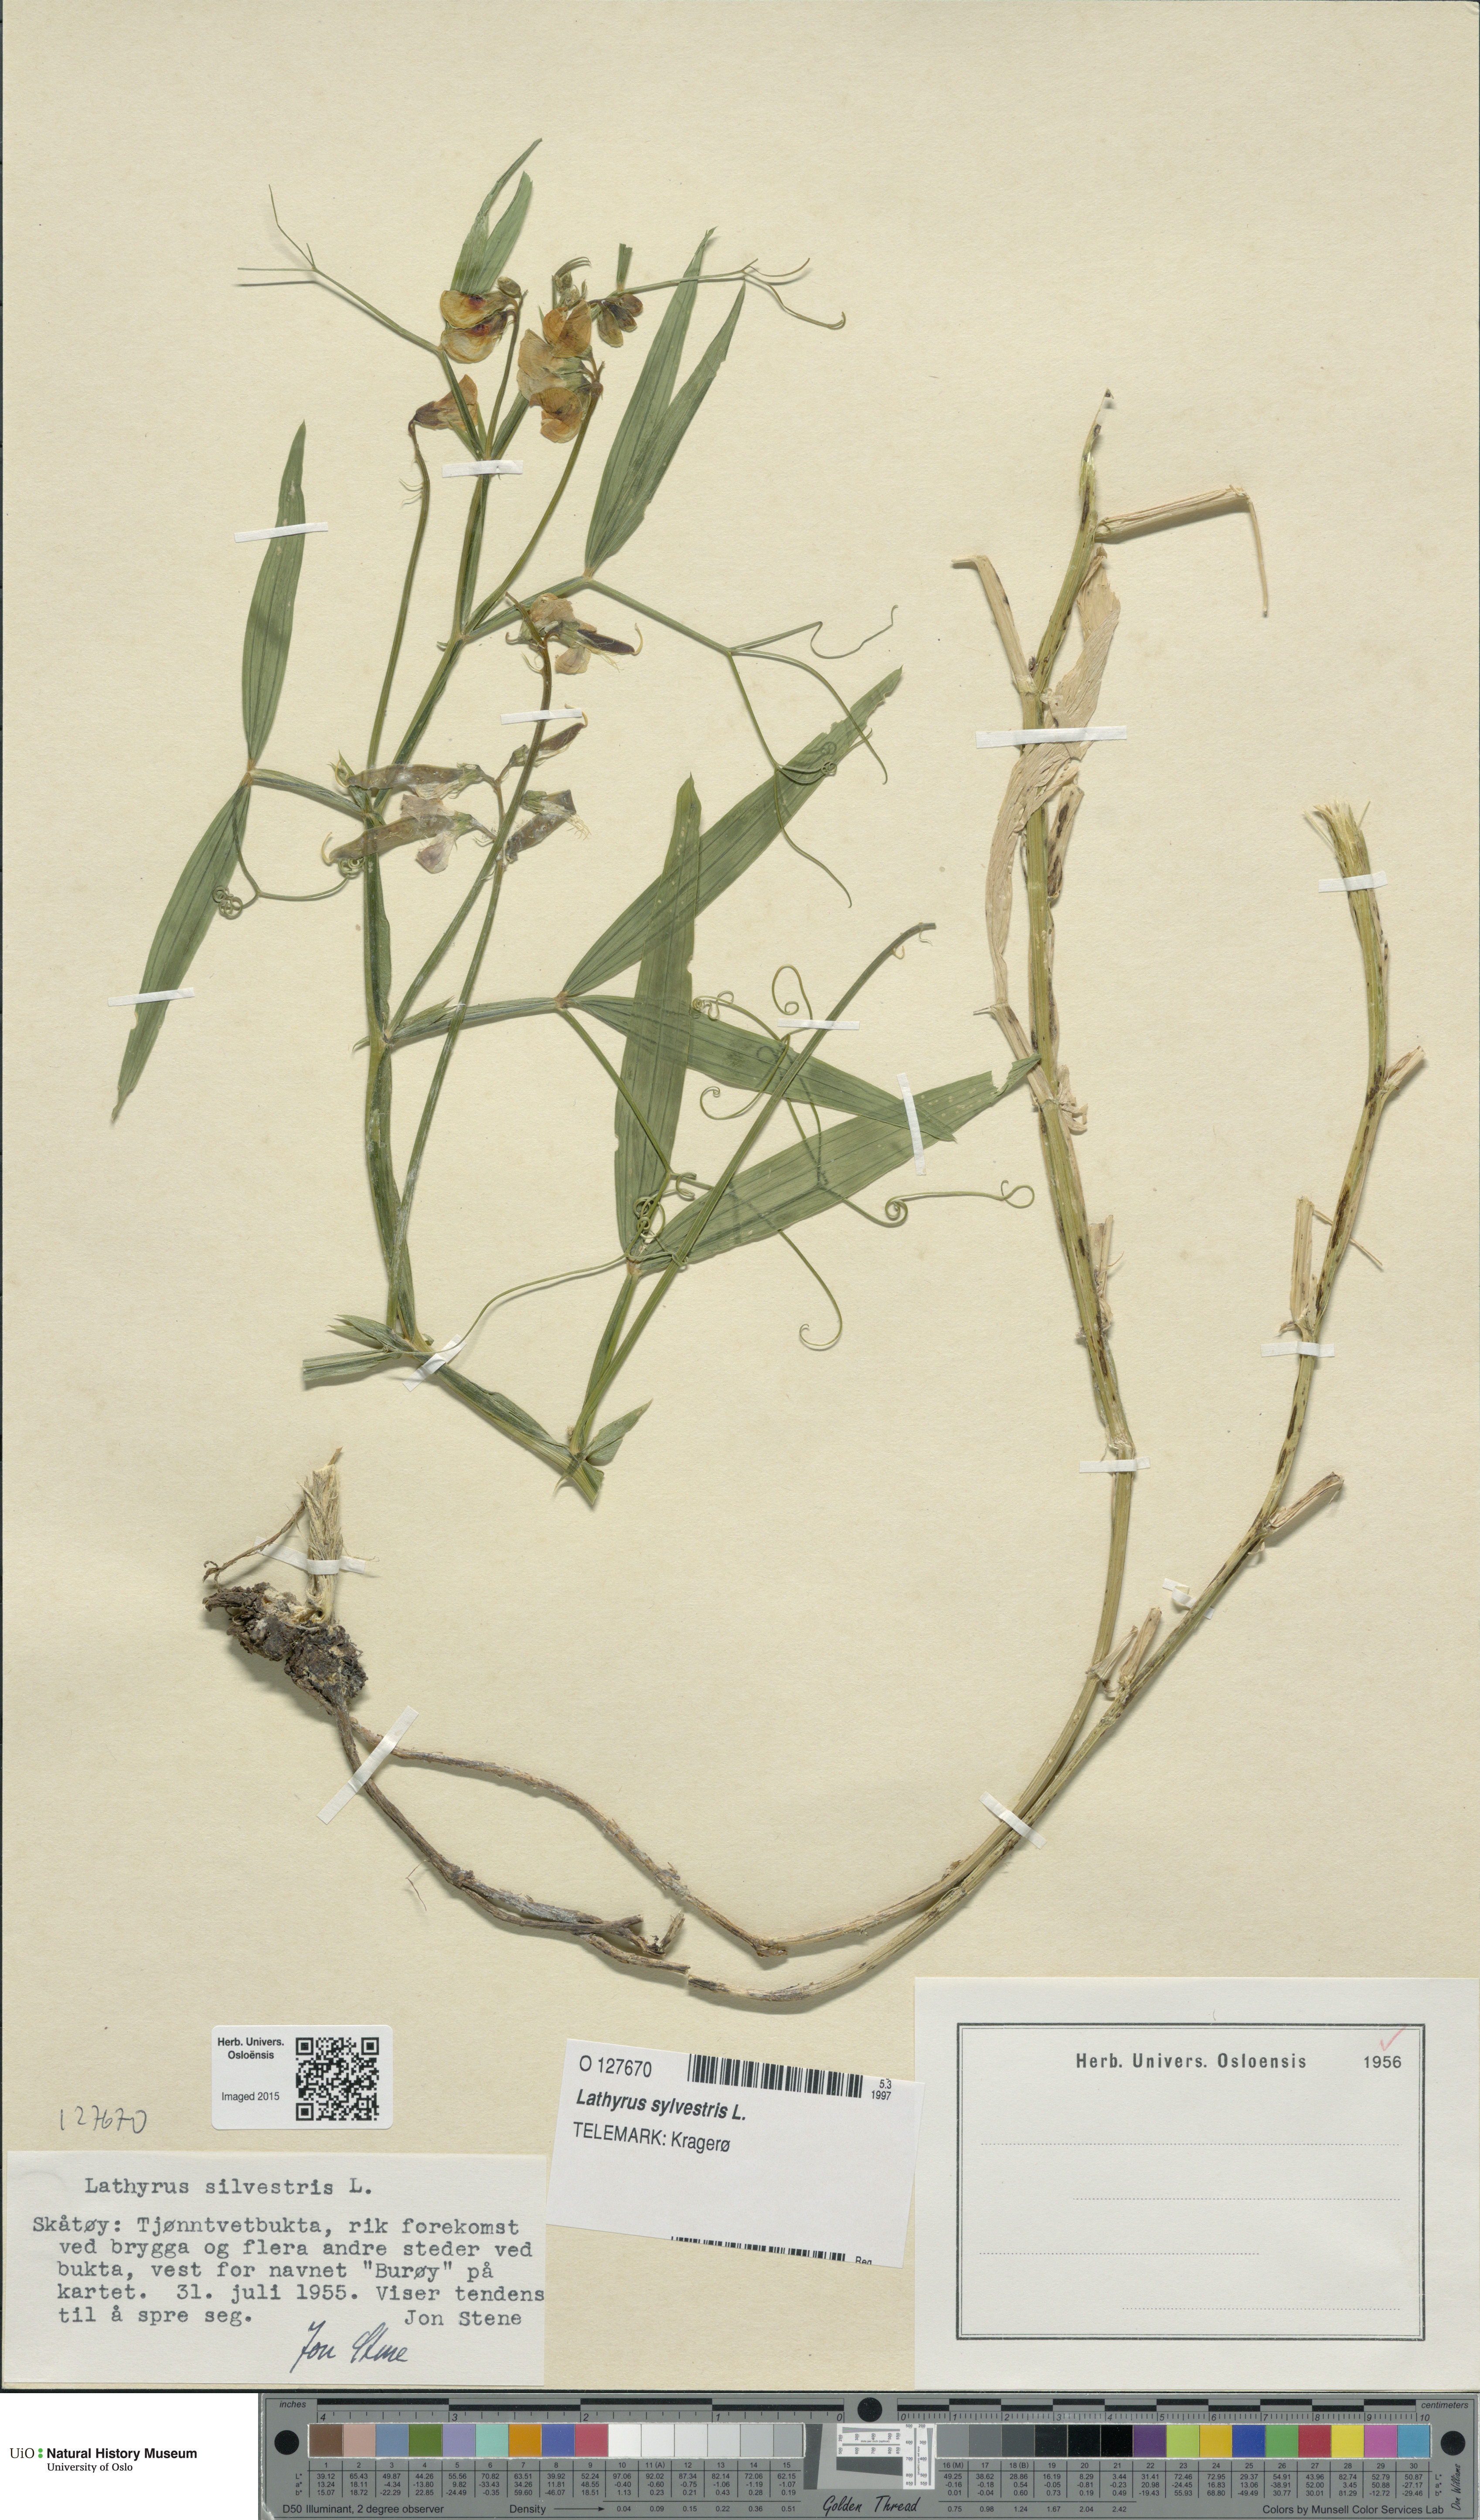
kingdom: Plantae
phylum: Tracheophyta
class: Magnoliopsida
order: Fabales
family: Fabaceae
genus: Lathyrus
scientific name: Lathyrus sylvestris
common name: Flat pea
